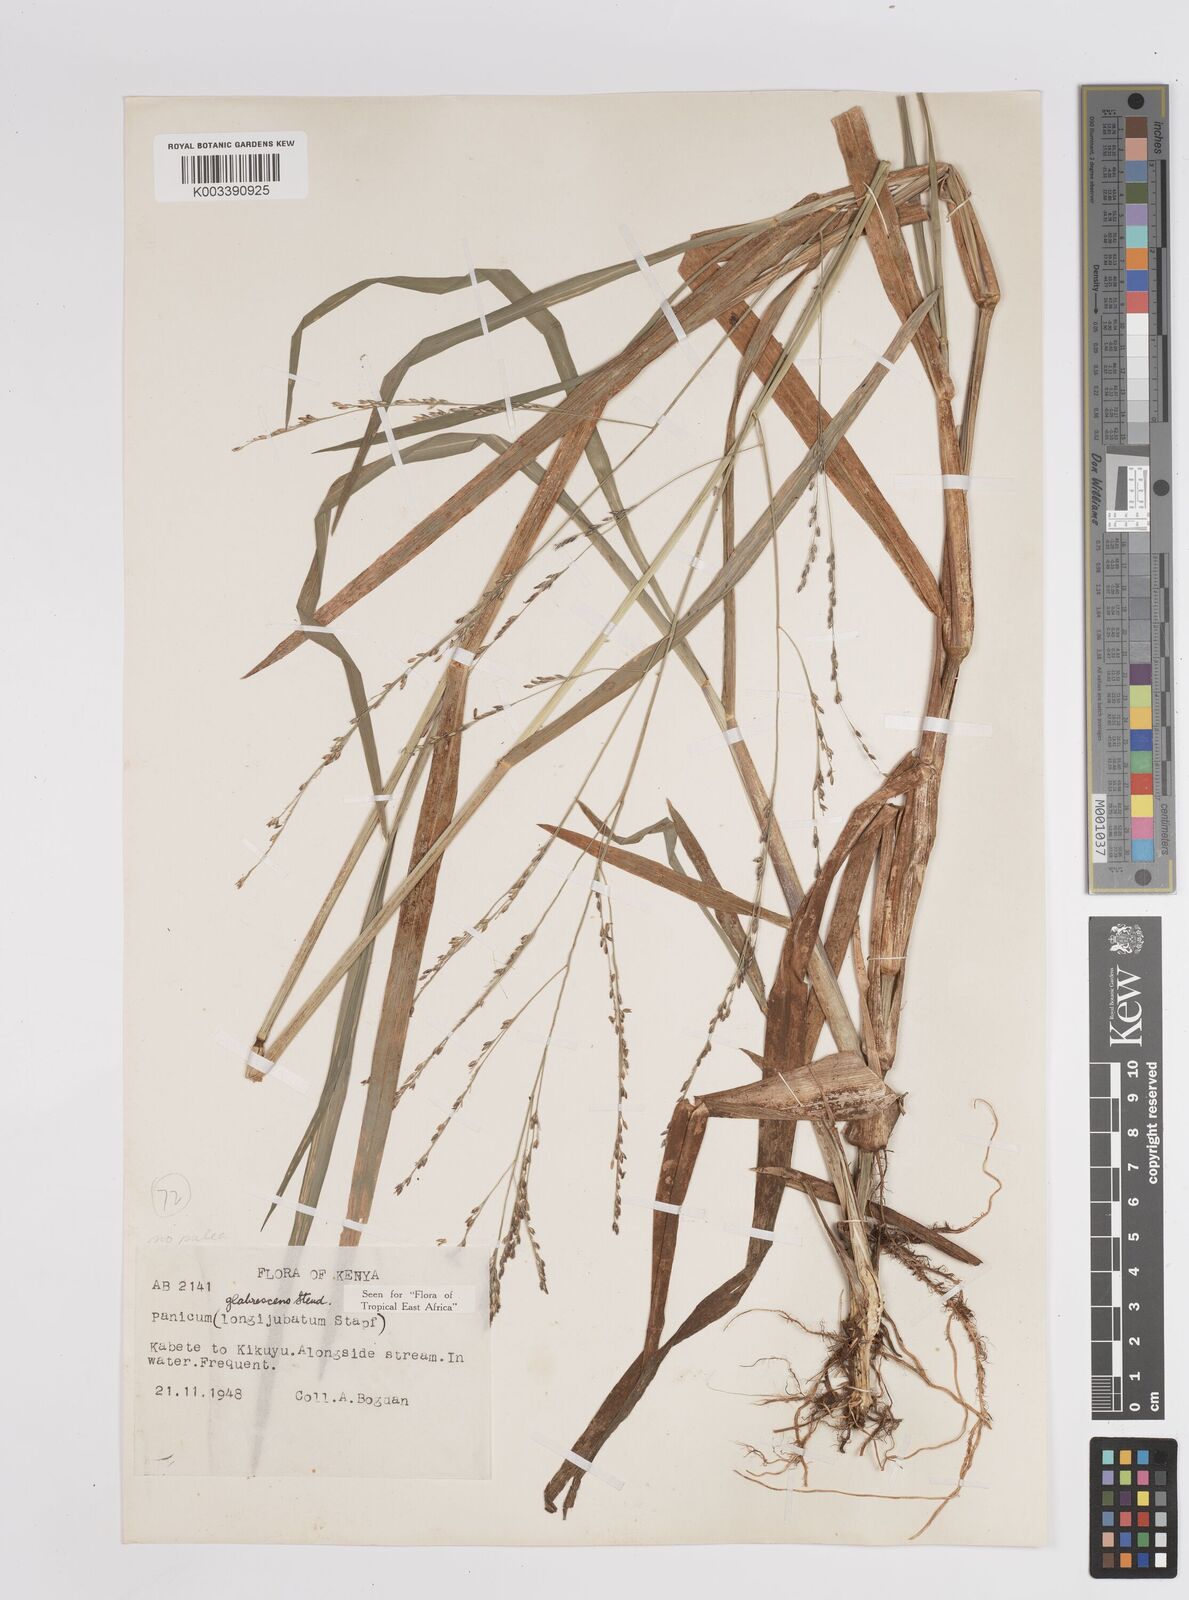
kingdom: Plantae
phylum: Tracheophyta
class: Liliopsida
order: Poales
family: Poaceae
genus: Panicum
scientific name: Panicum subalbidum
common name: Elbow buffalo grass
